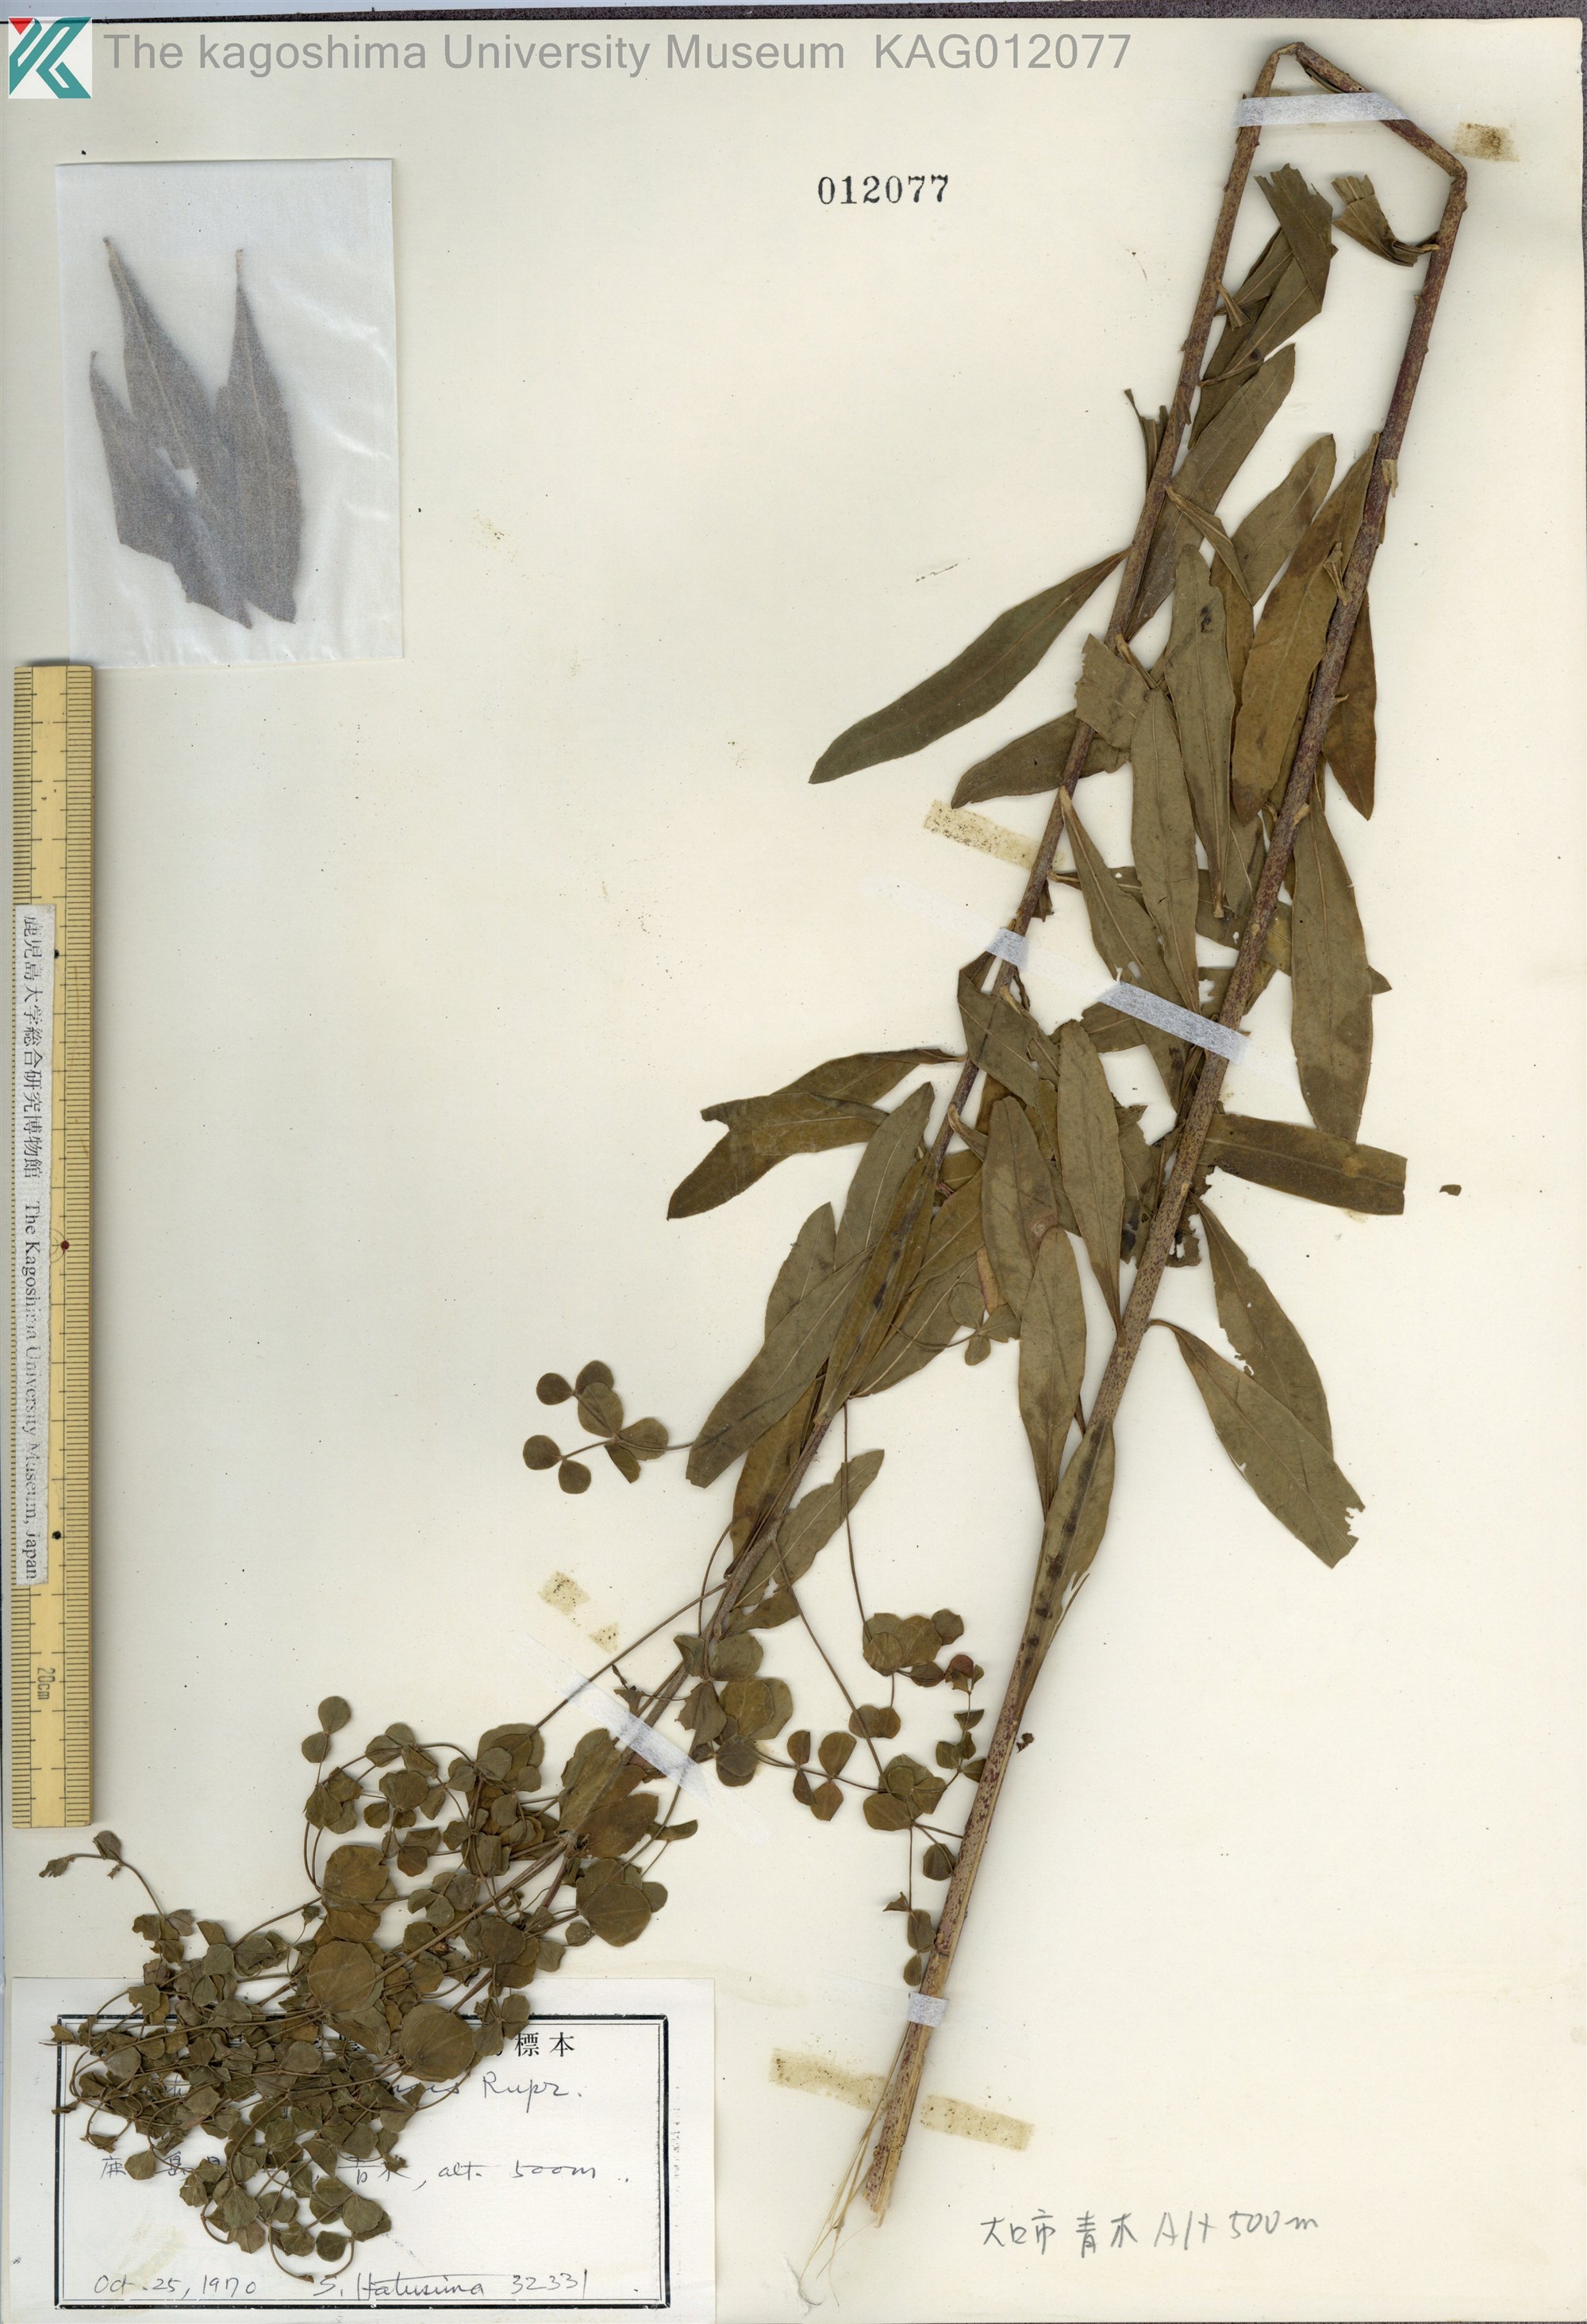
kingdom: Plantae
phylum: Tracheophyta
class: Magnoliopsida
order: Malpighiales
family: Euphorbiaceae
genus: Euphorbia
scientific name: Euphorbia pekinensis
